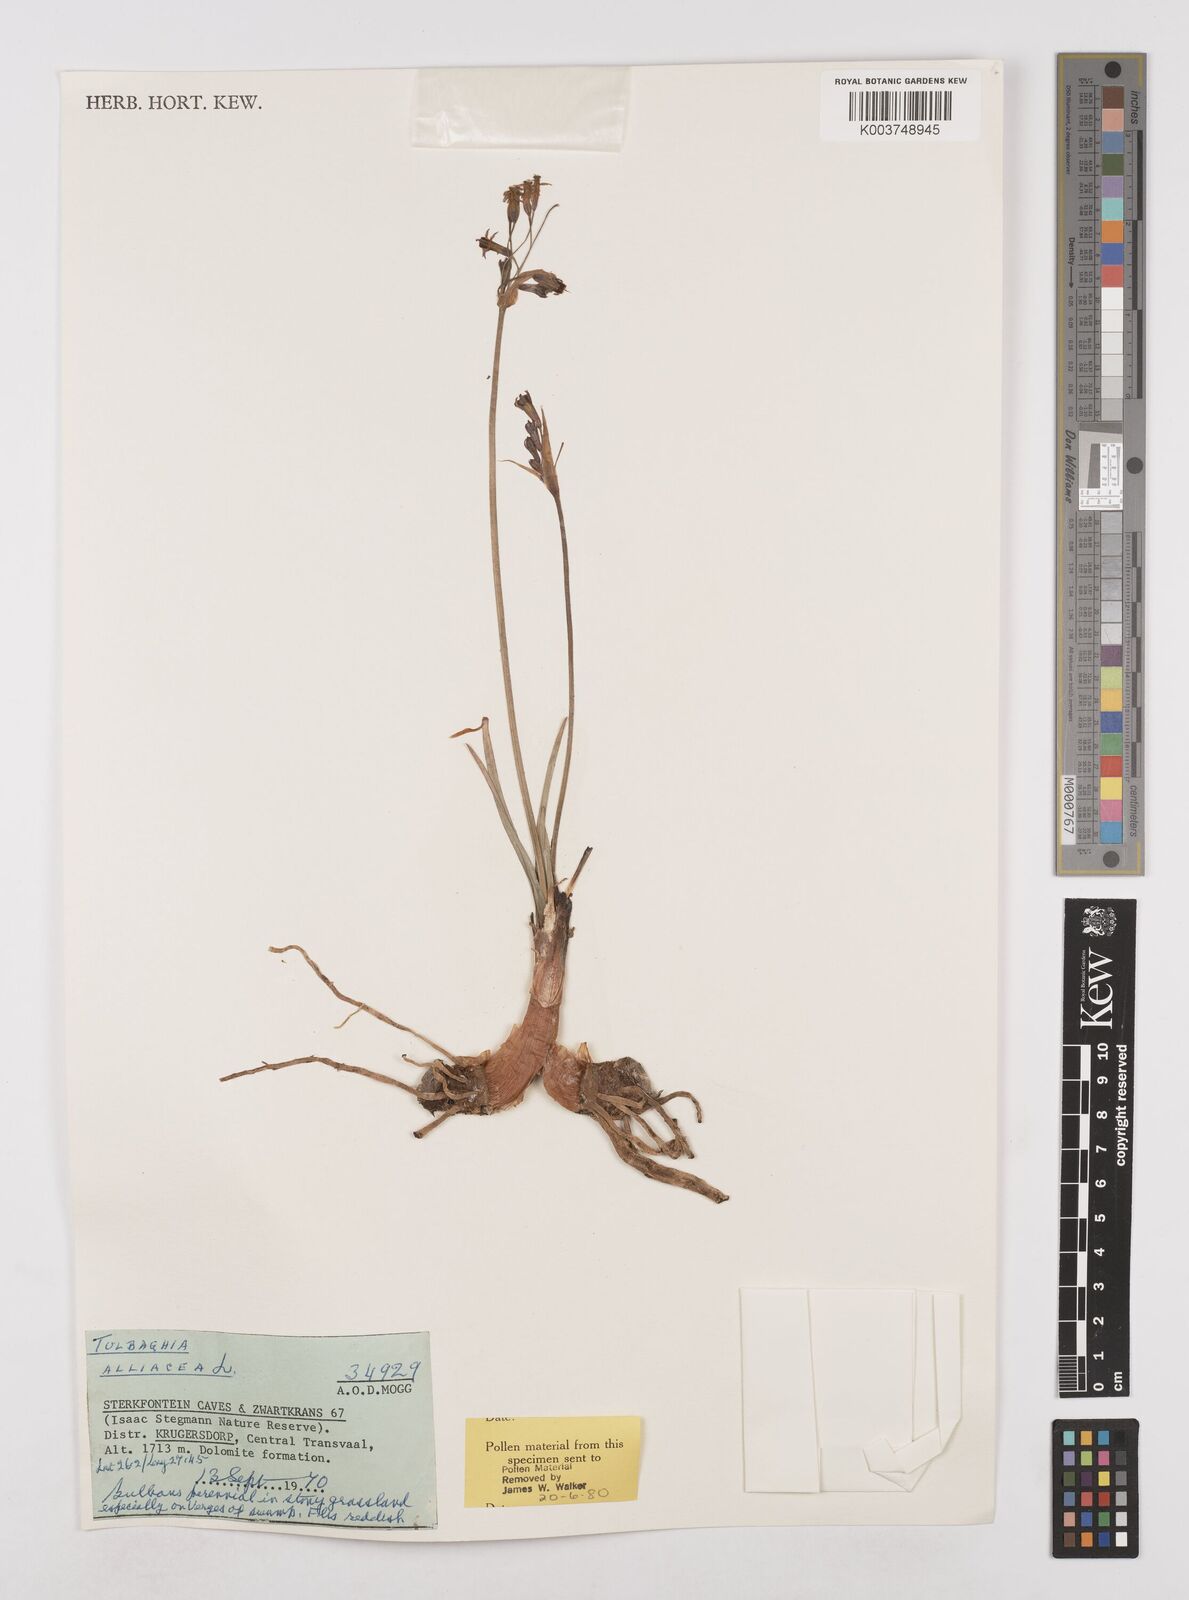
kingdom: Plantae
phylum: Tracheophyta
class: Liliopsida
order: Asparagales
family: Amaryllidaceae
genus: Tulbaghia
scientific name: Tulbaghia alliacea
